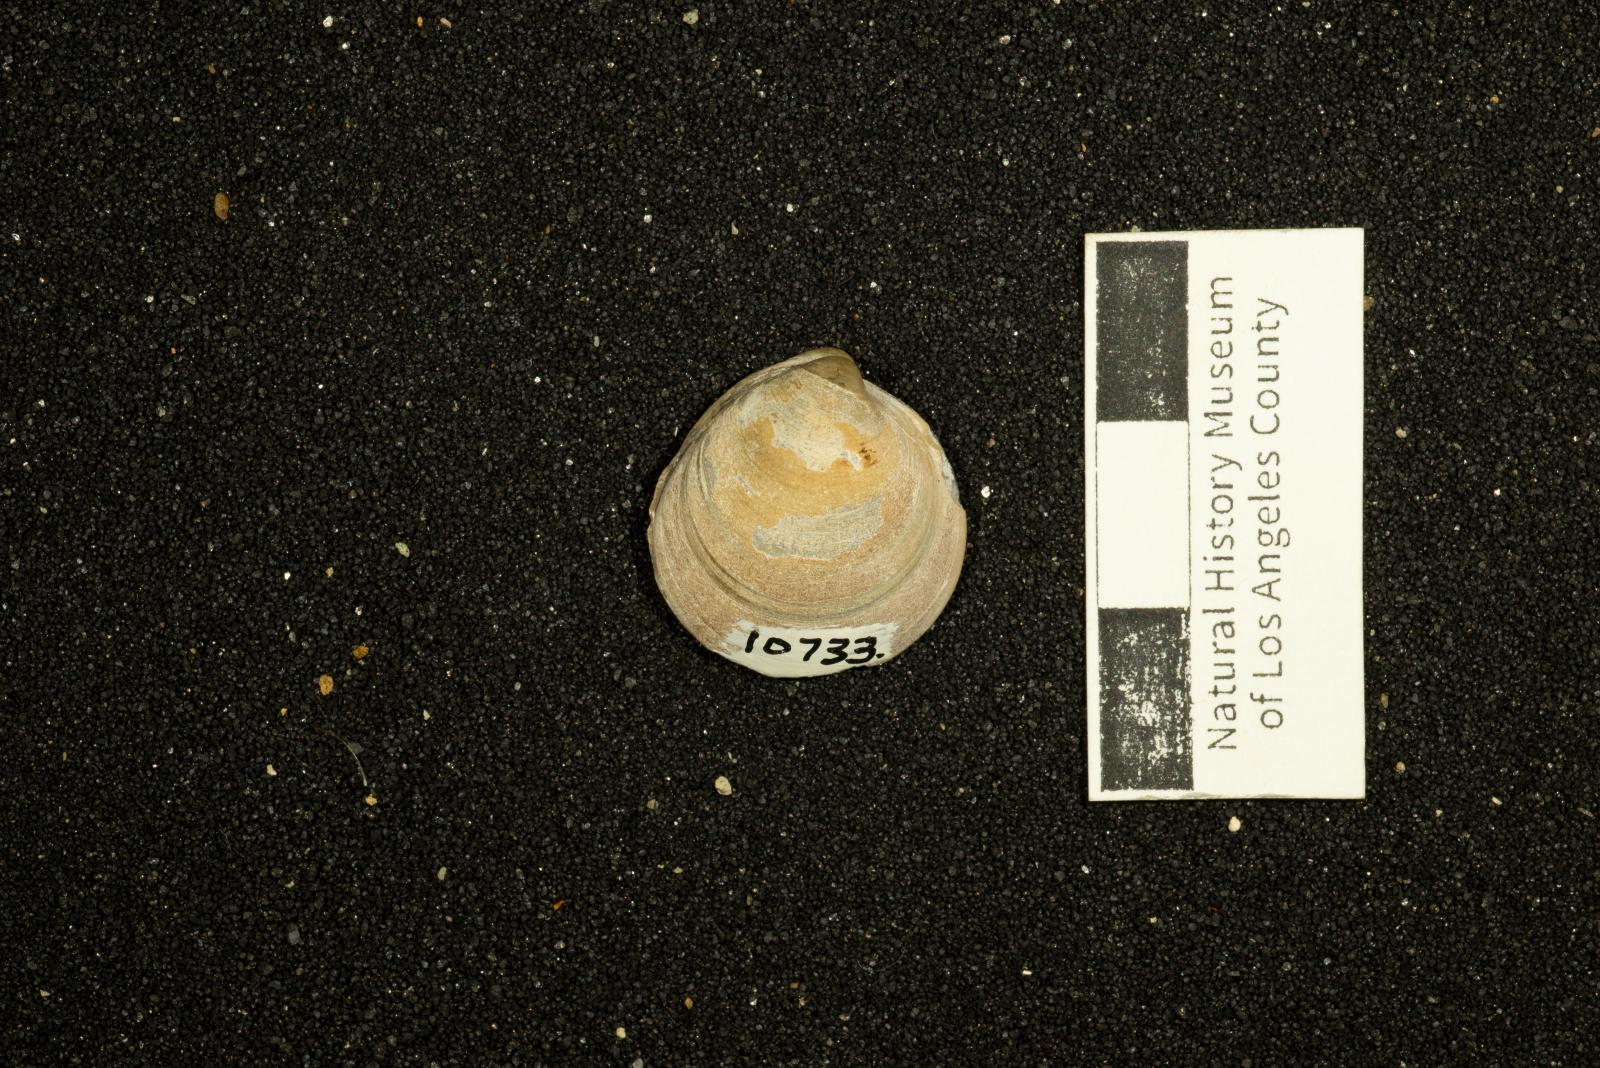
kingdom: Animalia
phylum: Mollusca
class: Bivalvia
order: Arcida
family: Glycymerididae
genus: Glycymerita
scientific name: Glycymerita Axinaea veatchii
